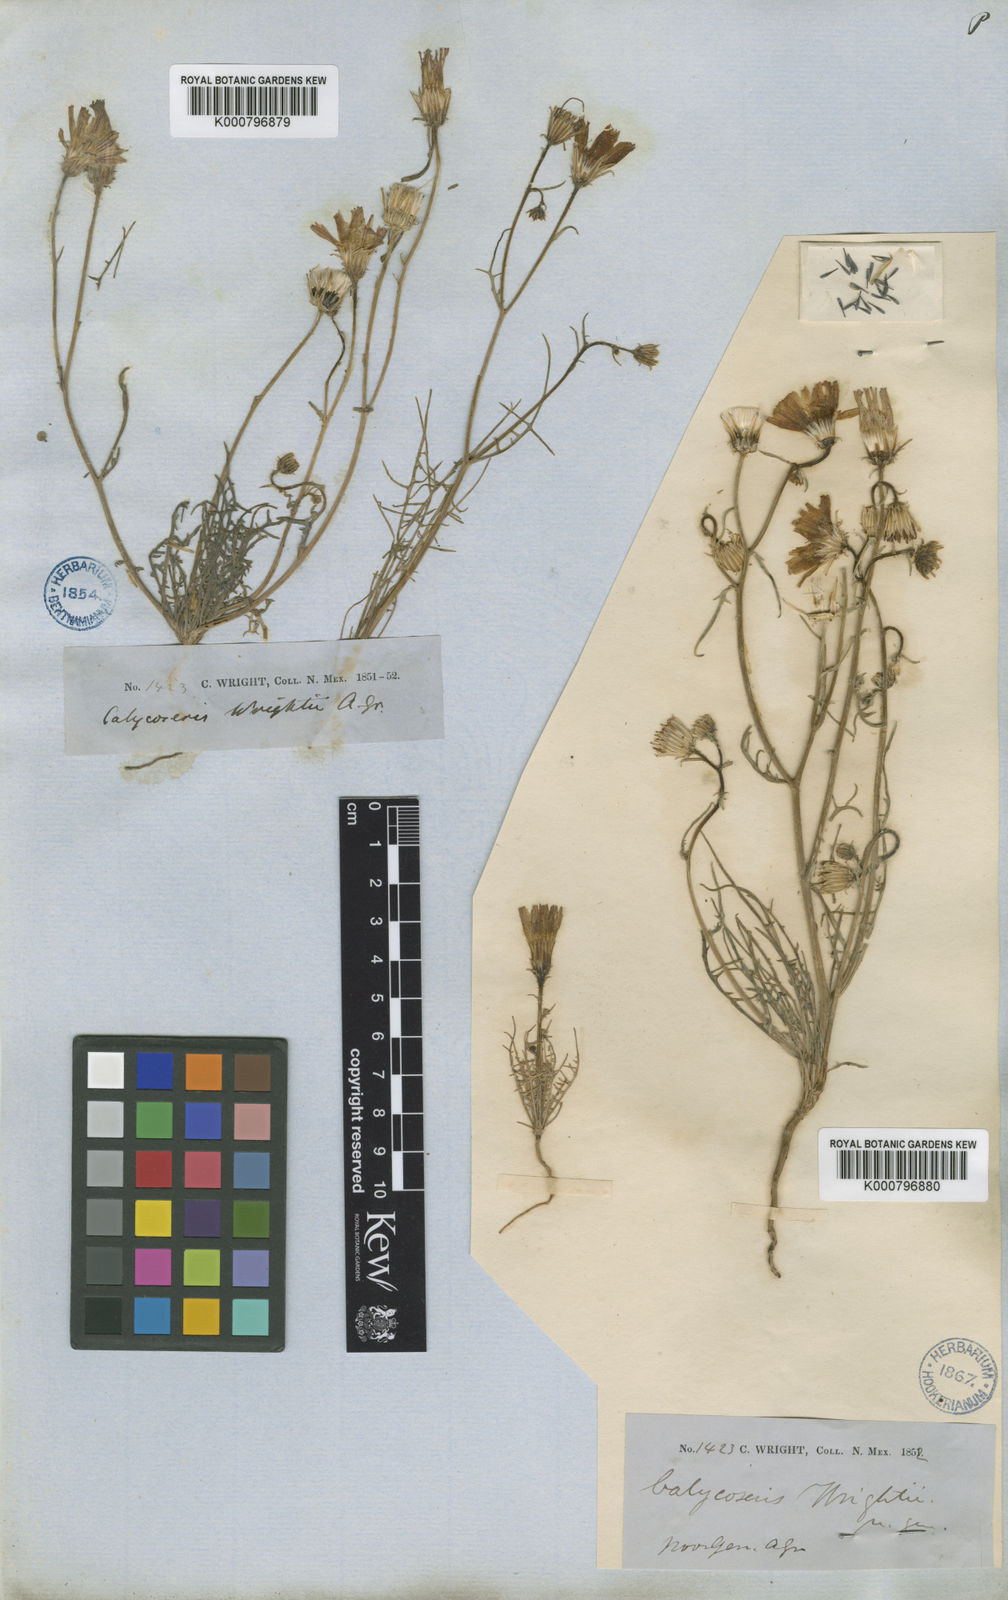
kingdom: Plantae
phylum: Tracheophyta
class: Magnoliopsida
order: Asterales
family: Asteraceae
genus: Calycoseris
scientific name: Calycoseris wrightii
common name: White tackstem
